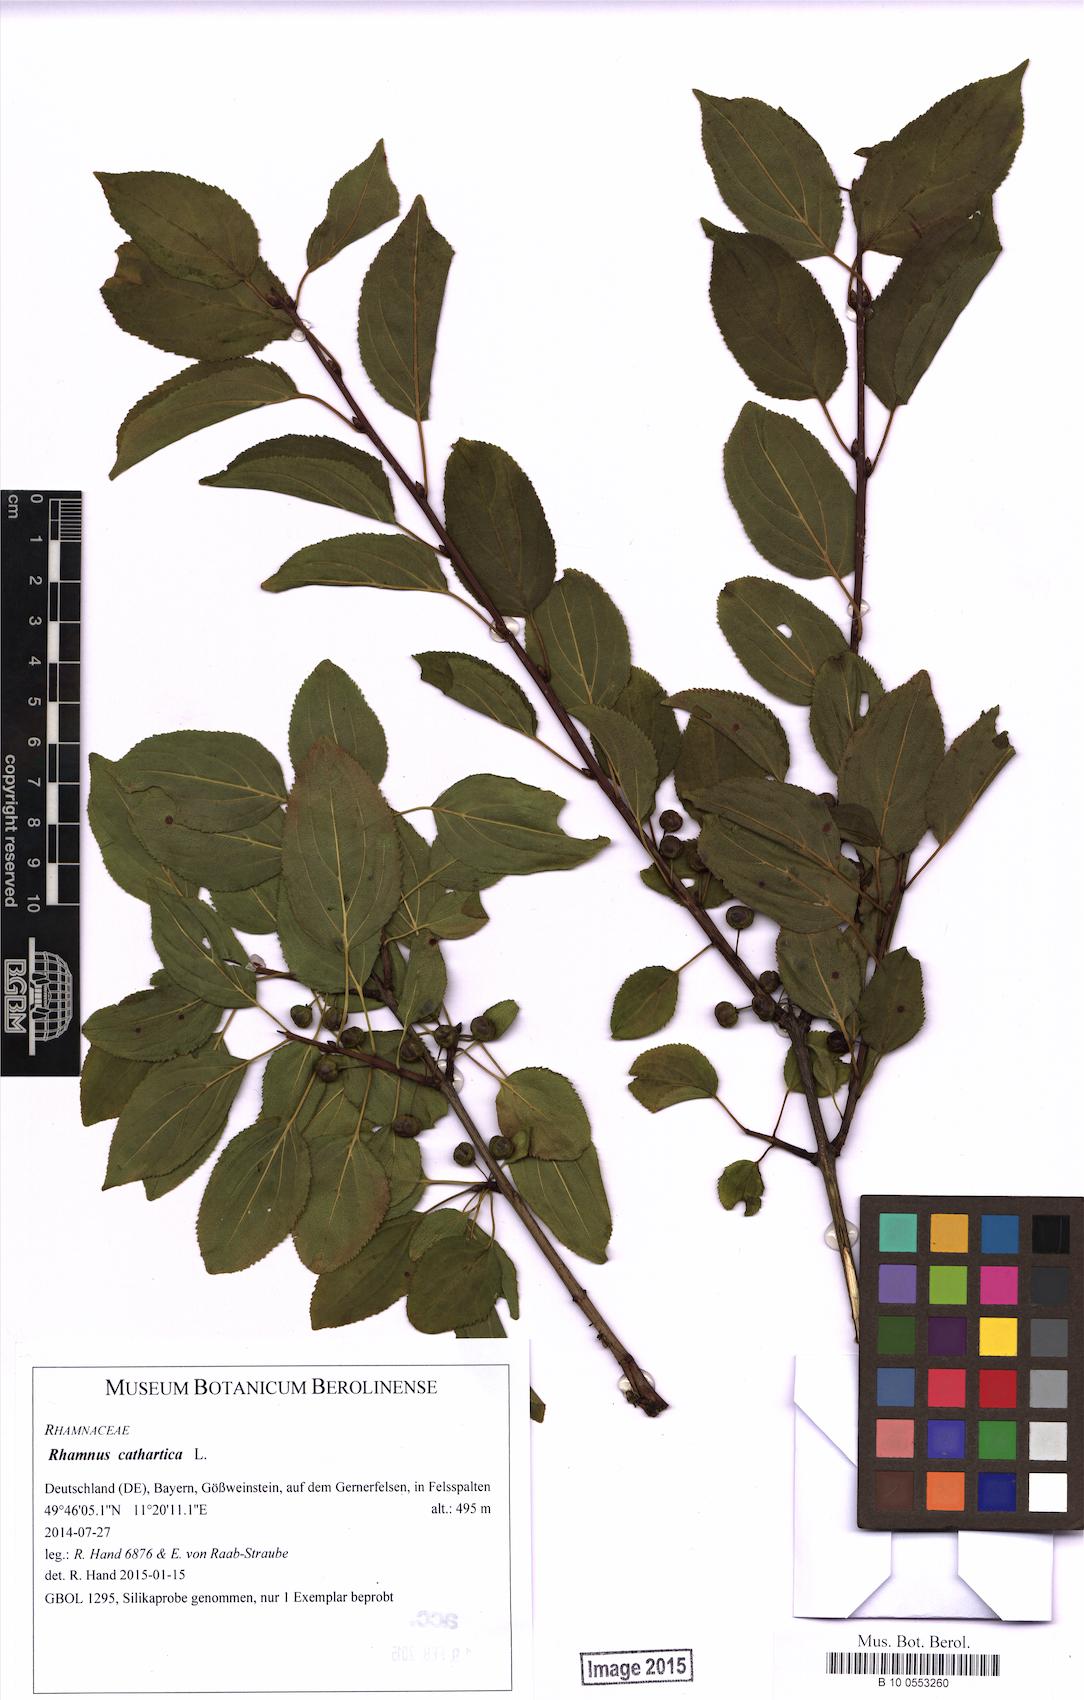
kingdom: Plantae
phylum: Tracheophyta
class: Magnoliopsida
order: Rosales
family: Rhamnaceae
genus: Rhamnus
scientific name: Rhamnus cathartica
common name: Common buckthorn
